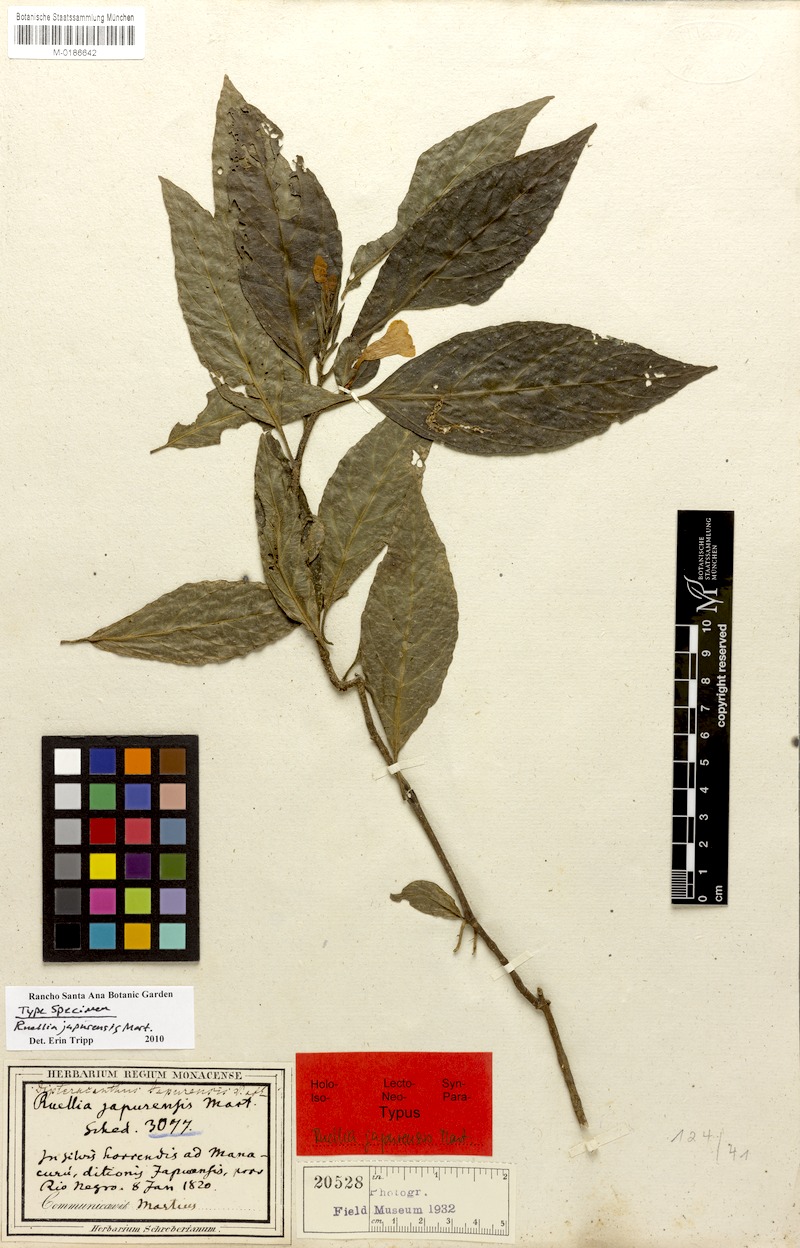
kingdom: Plantae
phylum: Tracheophyta
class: Magnoliopsida
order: Lamiales
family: Acanthaceae
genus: Ruellia
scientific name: Ruellia terminalis
